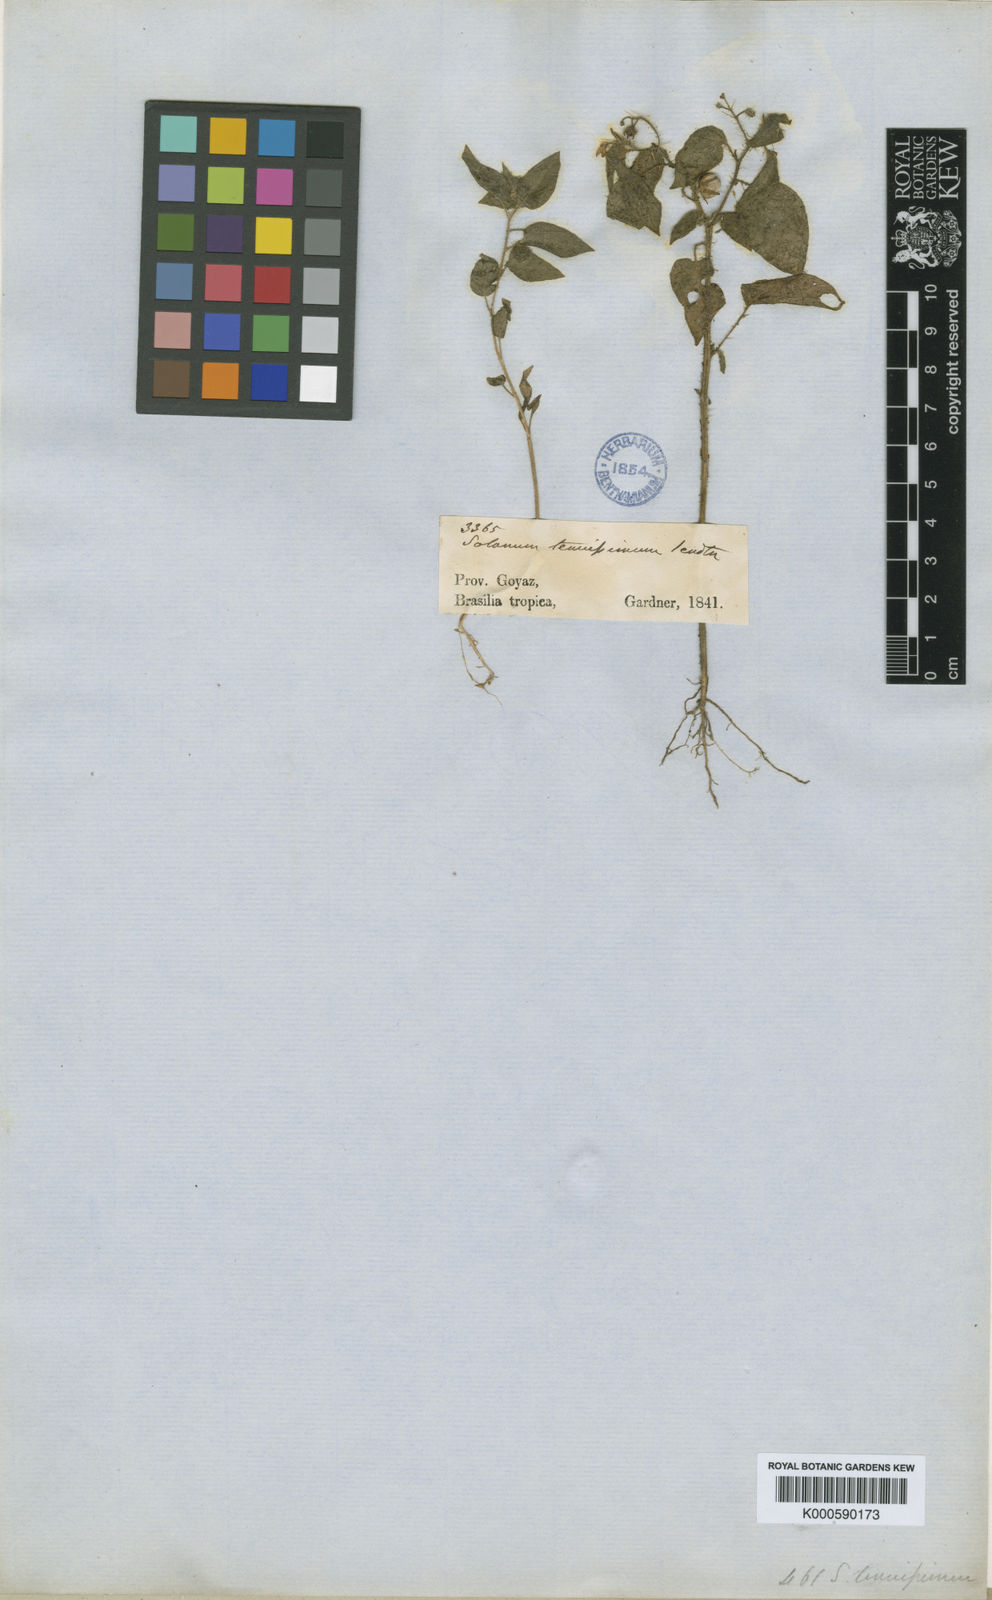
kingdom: Plantae
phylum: Tracheophyta
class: Magnoliopsida
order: Solanales
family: Solanaceae
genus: Solanum
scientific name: Solanum tenuissimum
